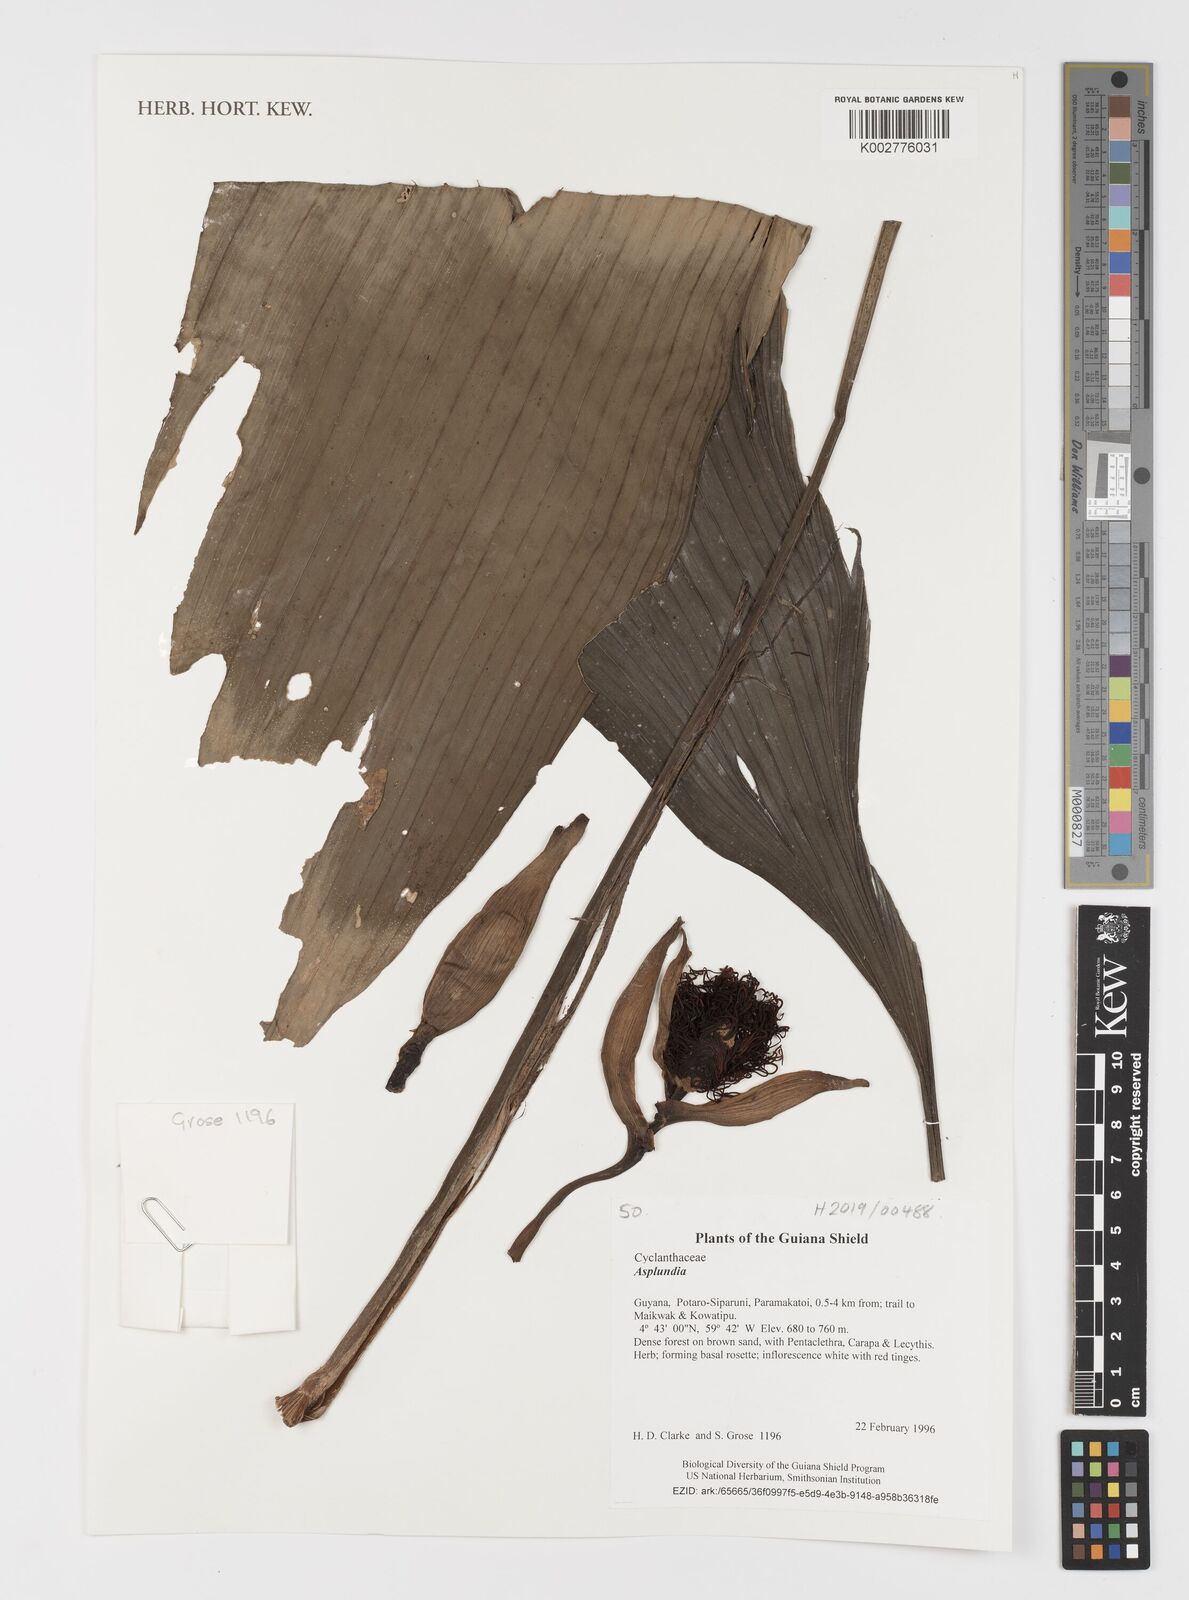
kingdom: Plantae
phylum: Tracheophyta
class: Liliopsida
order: Pandanales
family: Cyclanthaceae
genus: Asplundia
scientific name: Asplundia
